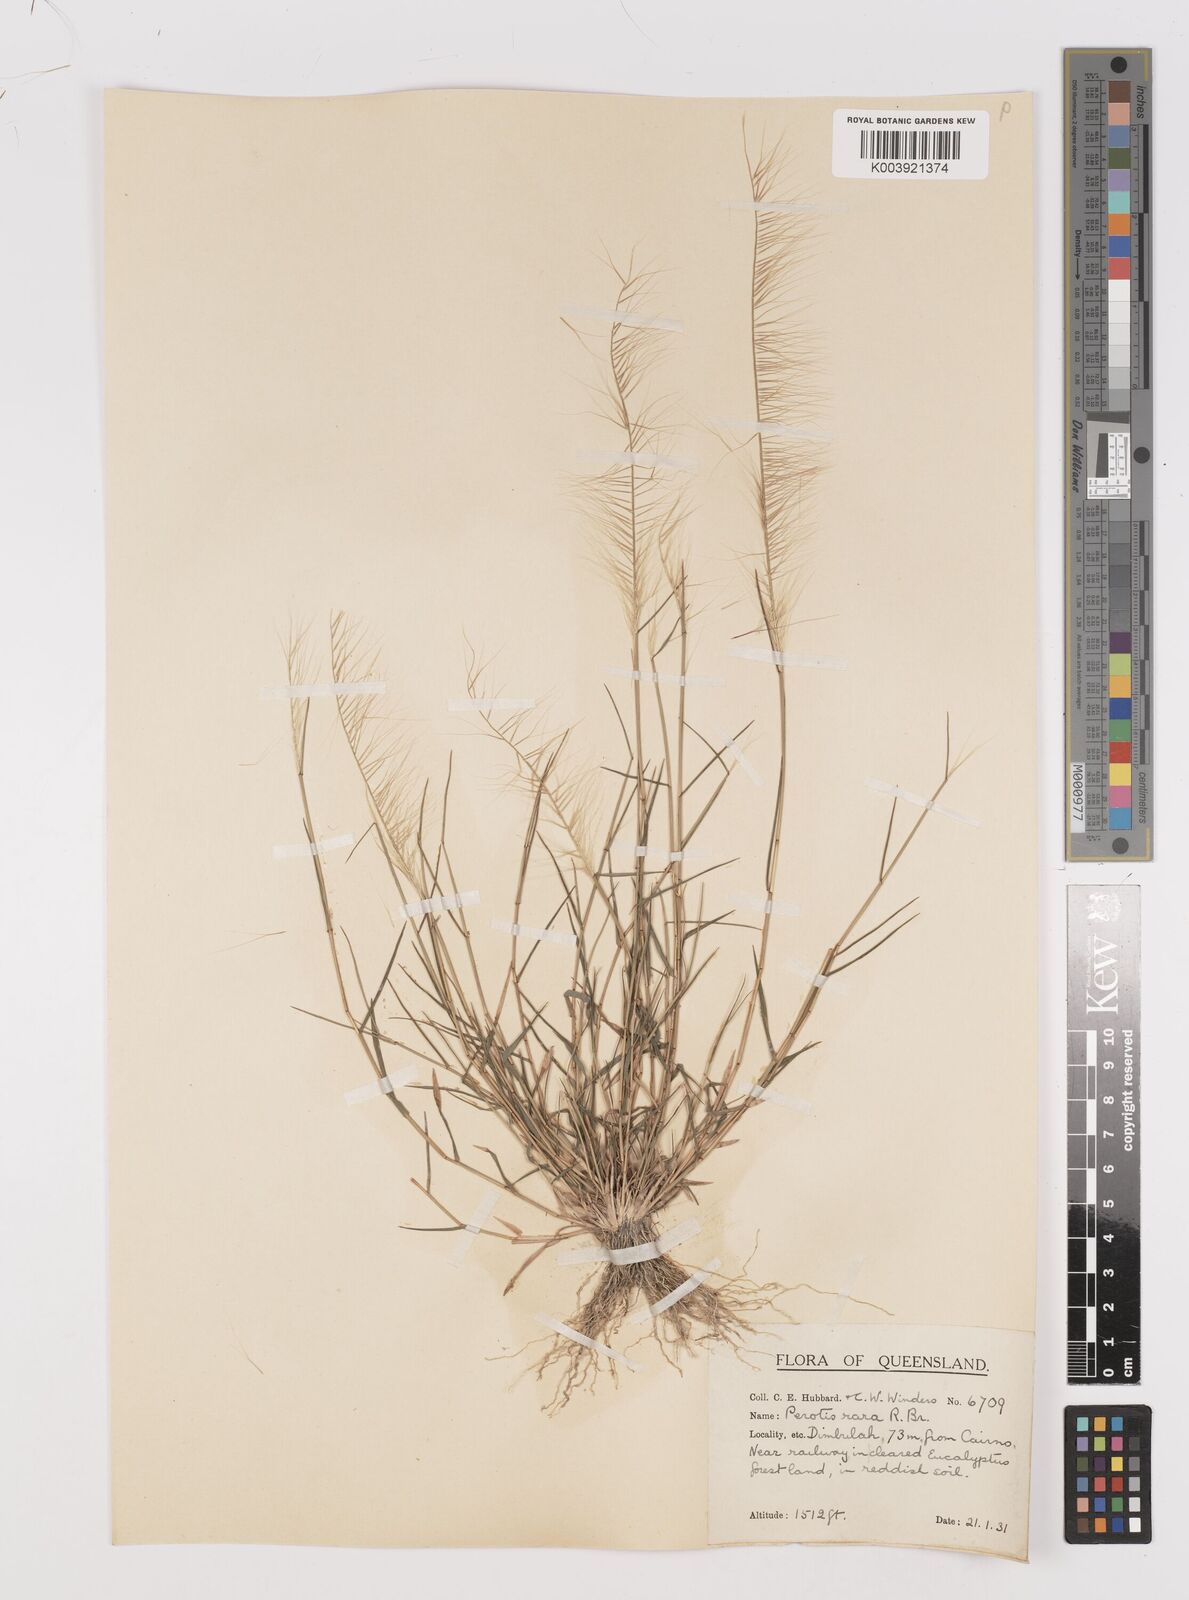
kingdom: Plantae
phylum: Tracheophyta
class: Liliopsida
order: Poales
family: Poaceae
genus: Perotis
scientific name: Perotis rara
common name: Comet grass
